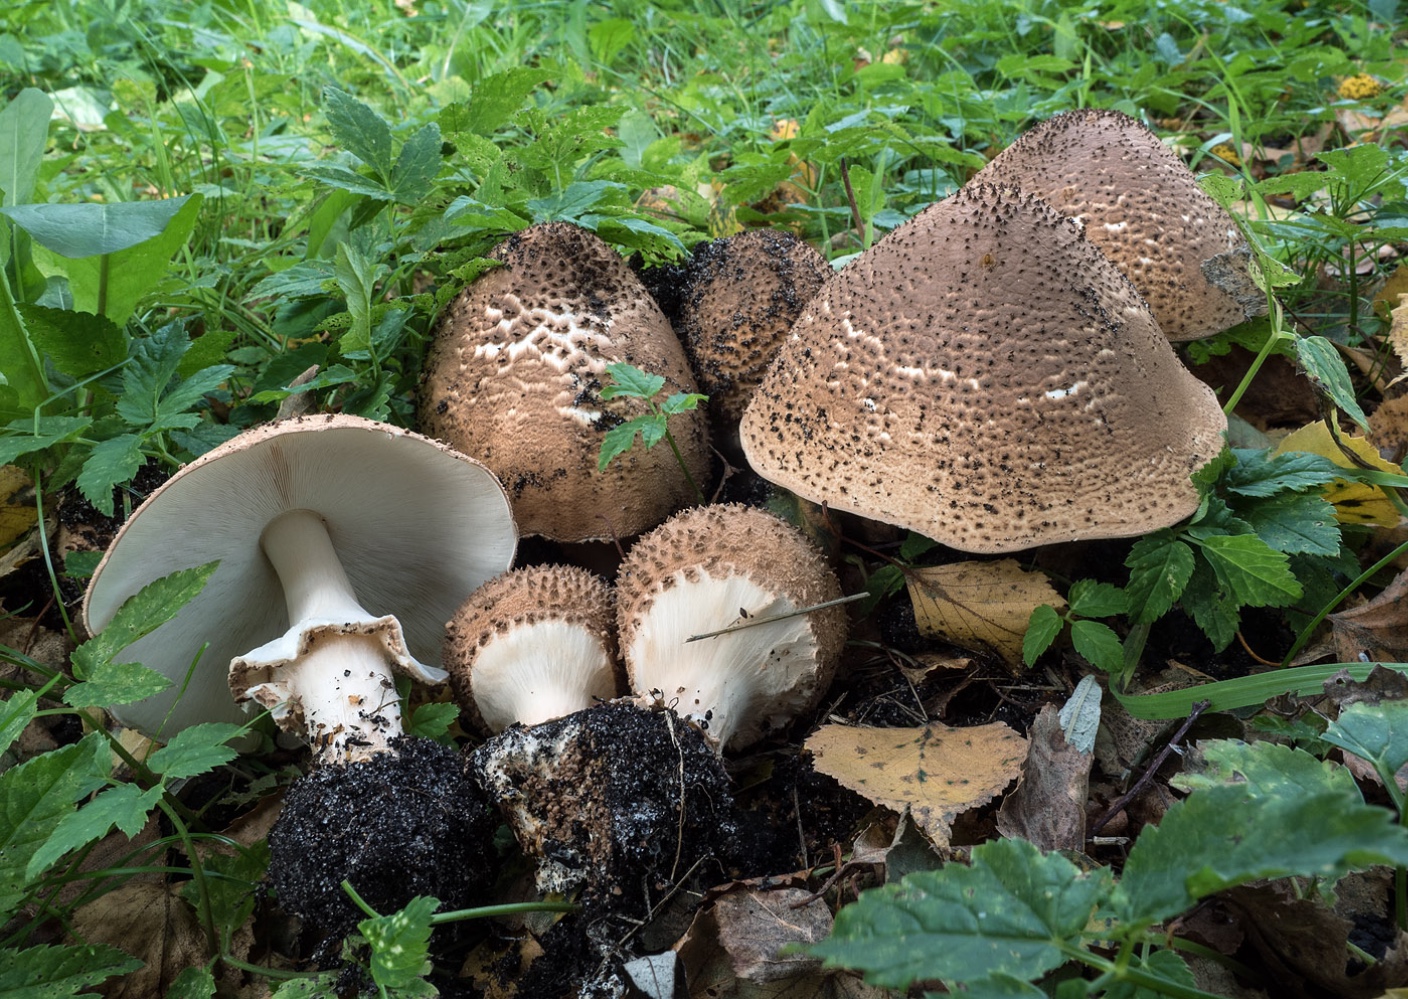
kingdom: Fungi
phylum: Basidiomycota
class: Agaricomycetes
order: Agaricales
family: Agaricaceae
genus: Echinoderma
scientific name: Echinoderma asperum
